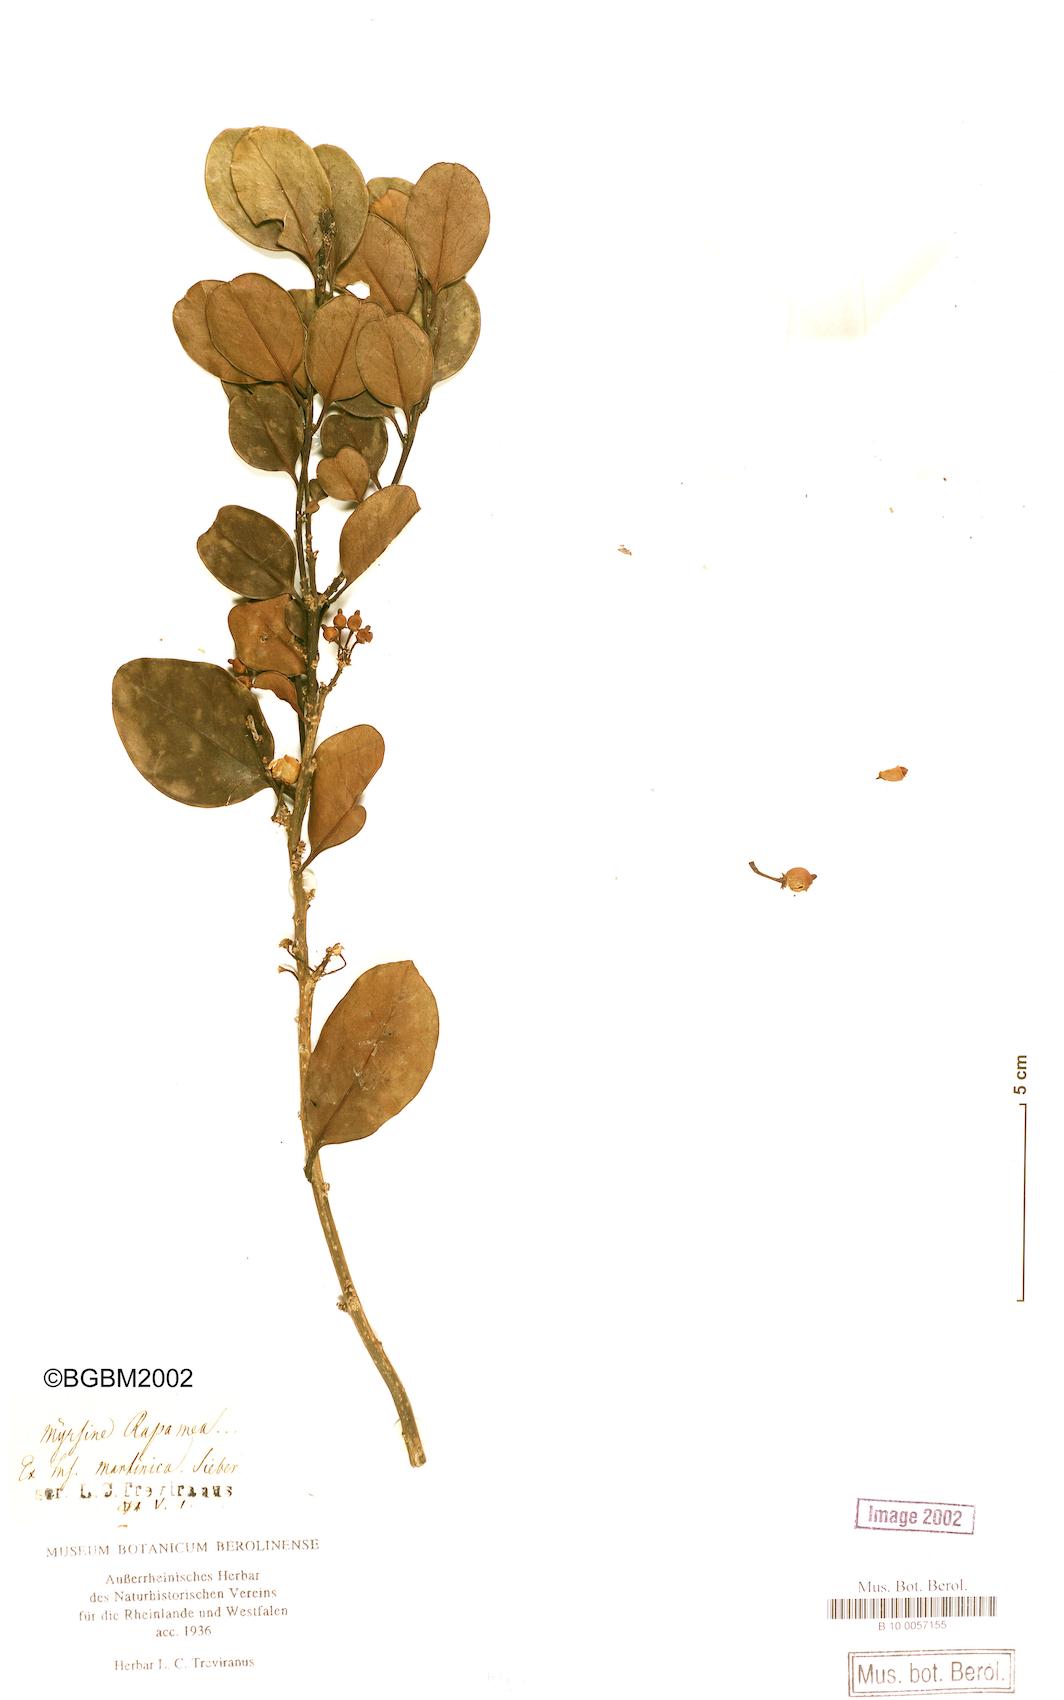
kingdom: Plantae
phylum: Tracheophyta
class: Magnoliopsida
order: Ericales
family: Primulaceae
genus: Myrsine
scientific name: Myrsine
